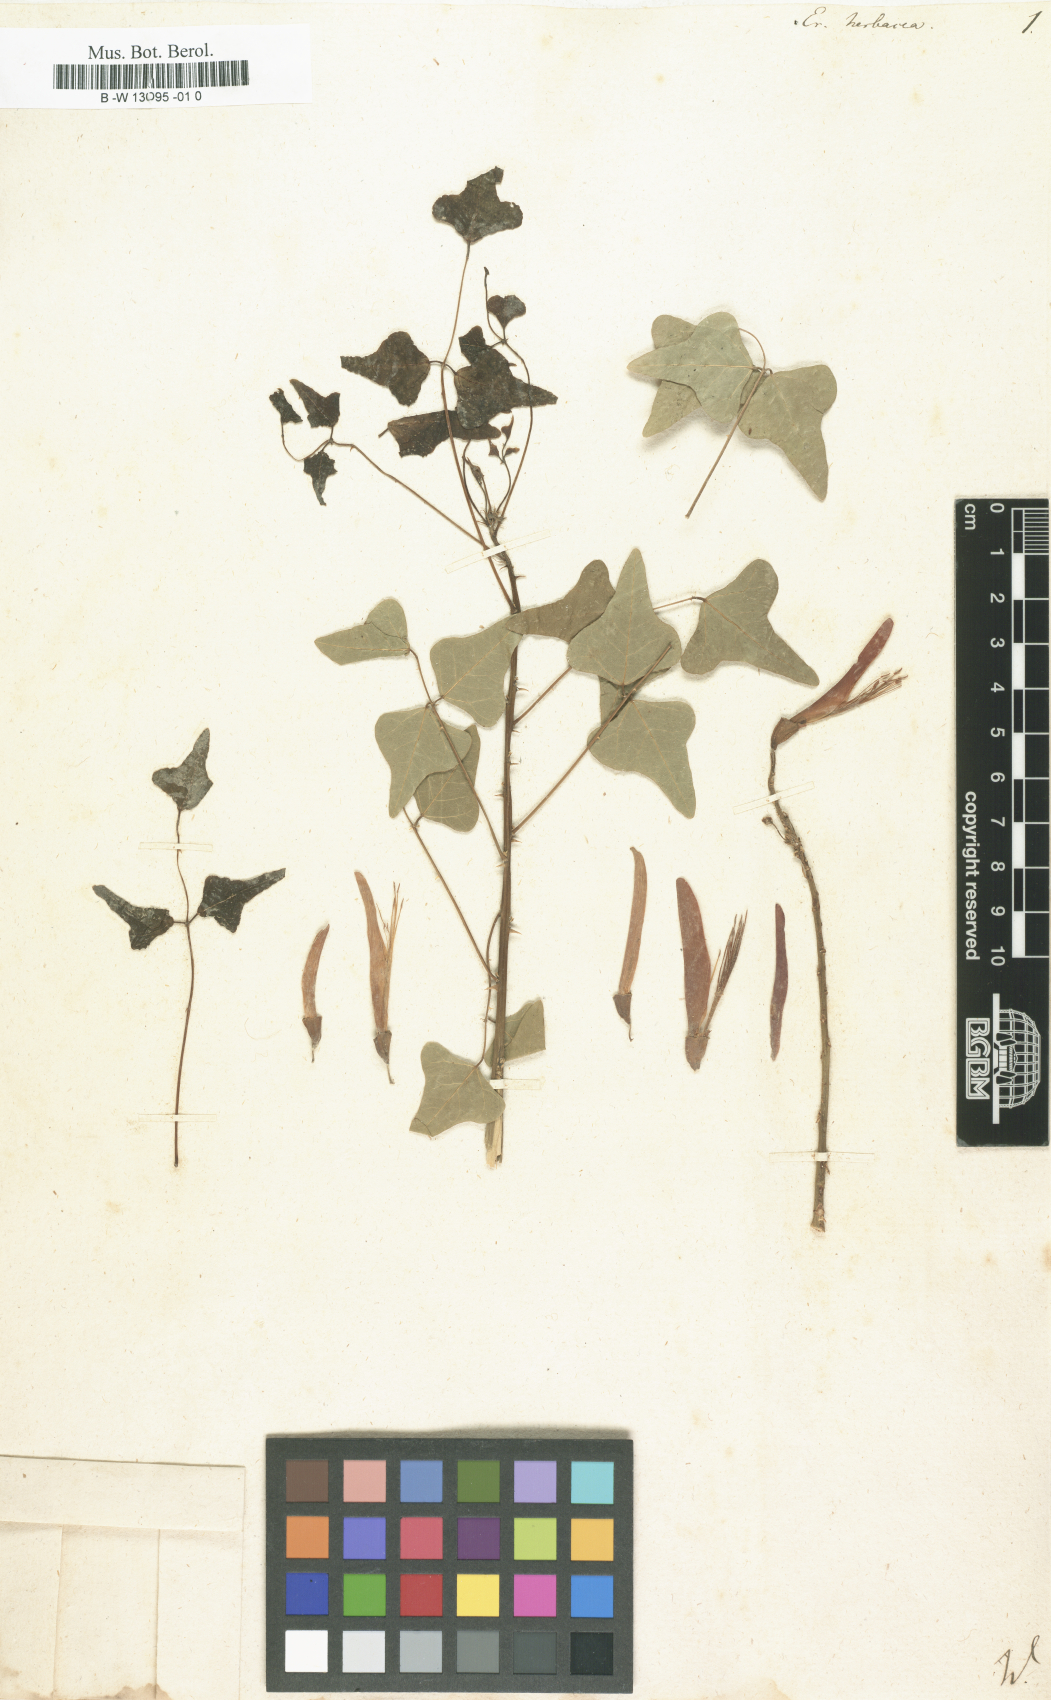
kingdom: Plantae
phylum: Tracheophyta
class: Magnoliopsida
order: Fabales
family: Fabaceae
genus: Erythrina
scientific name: Erythrina herbacea
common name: Coral-bean
